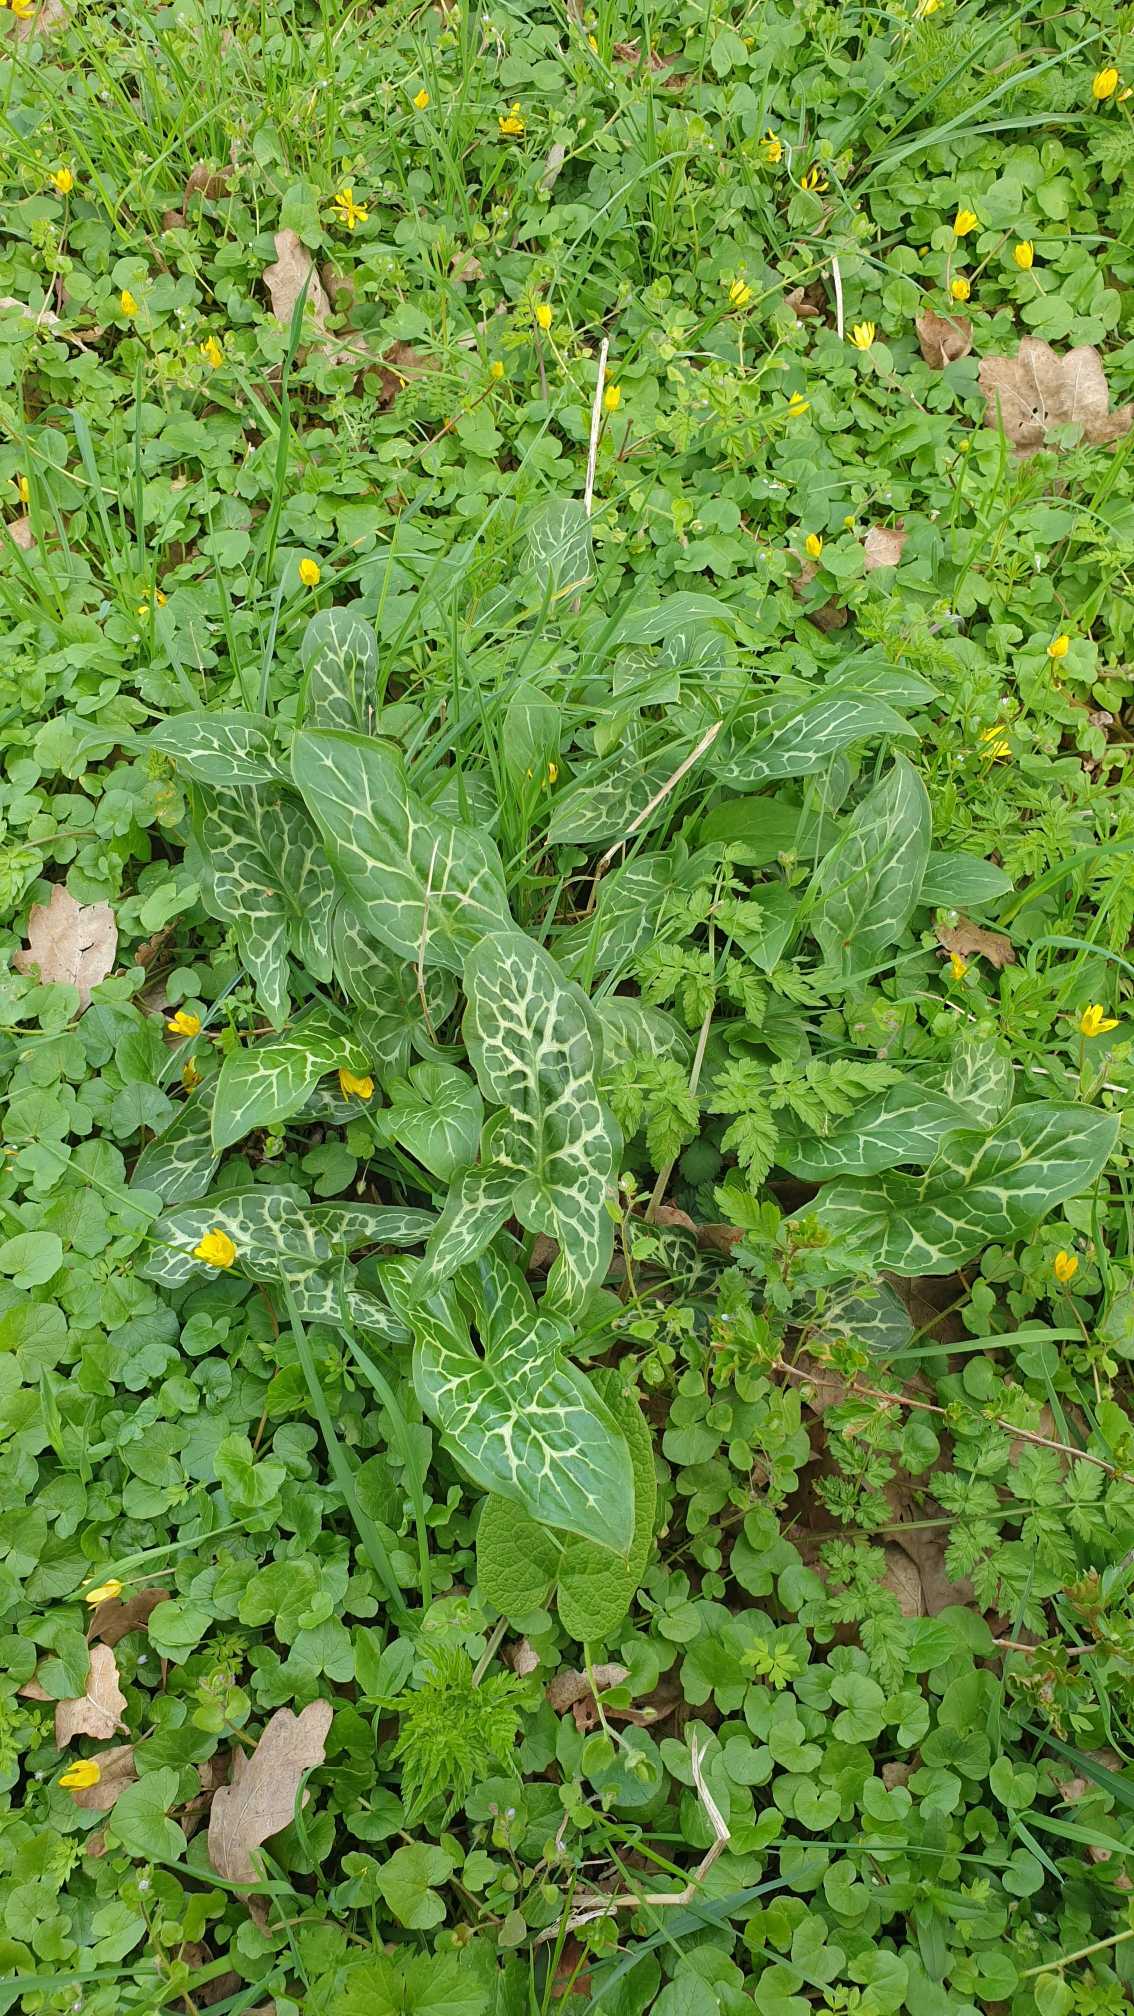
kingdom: Plantae
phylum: Tracheophyta
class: Liliopsida
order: Alismatales
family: Araceae
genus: Arum
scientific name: Arum italicum
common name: Italiensk arum
